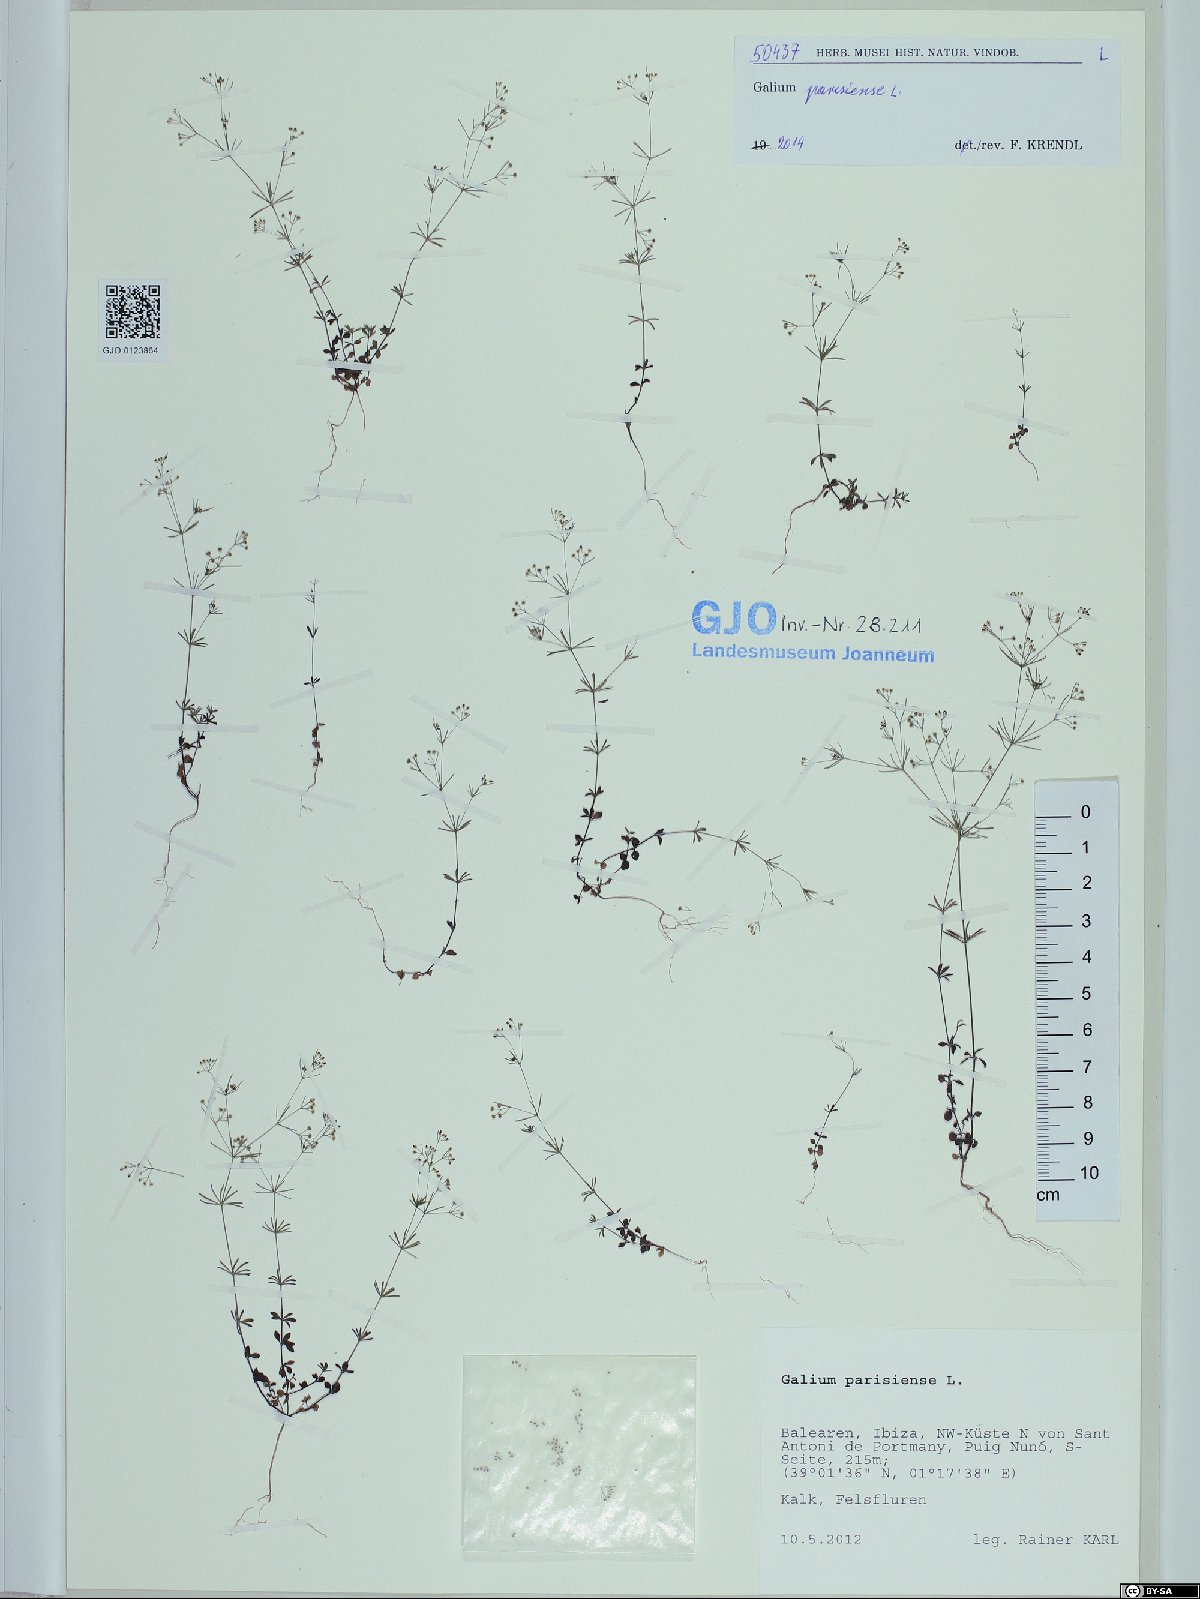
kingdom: Plantae
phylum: Tracheophyta
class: Magnoliopsida
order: Gentianales
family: Rubiaceae
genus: Galium
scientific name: Galium parisiense
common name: Wall bedstraw
